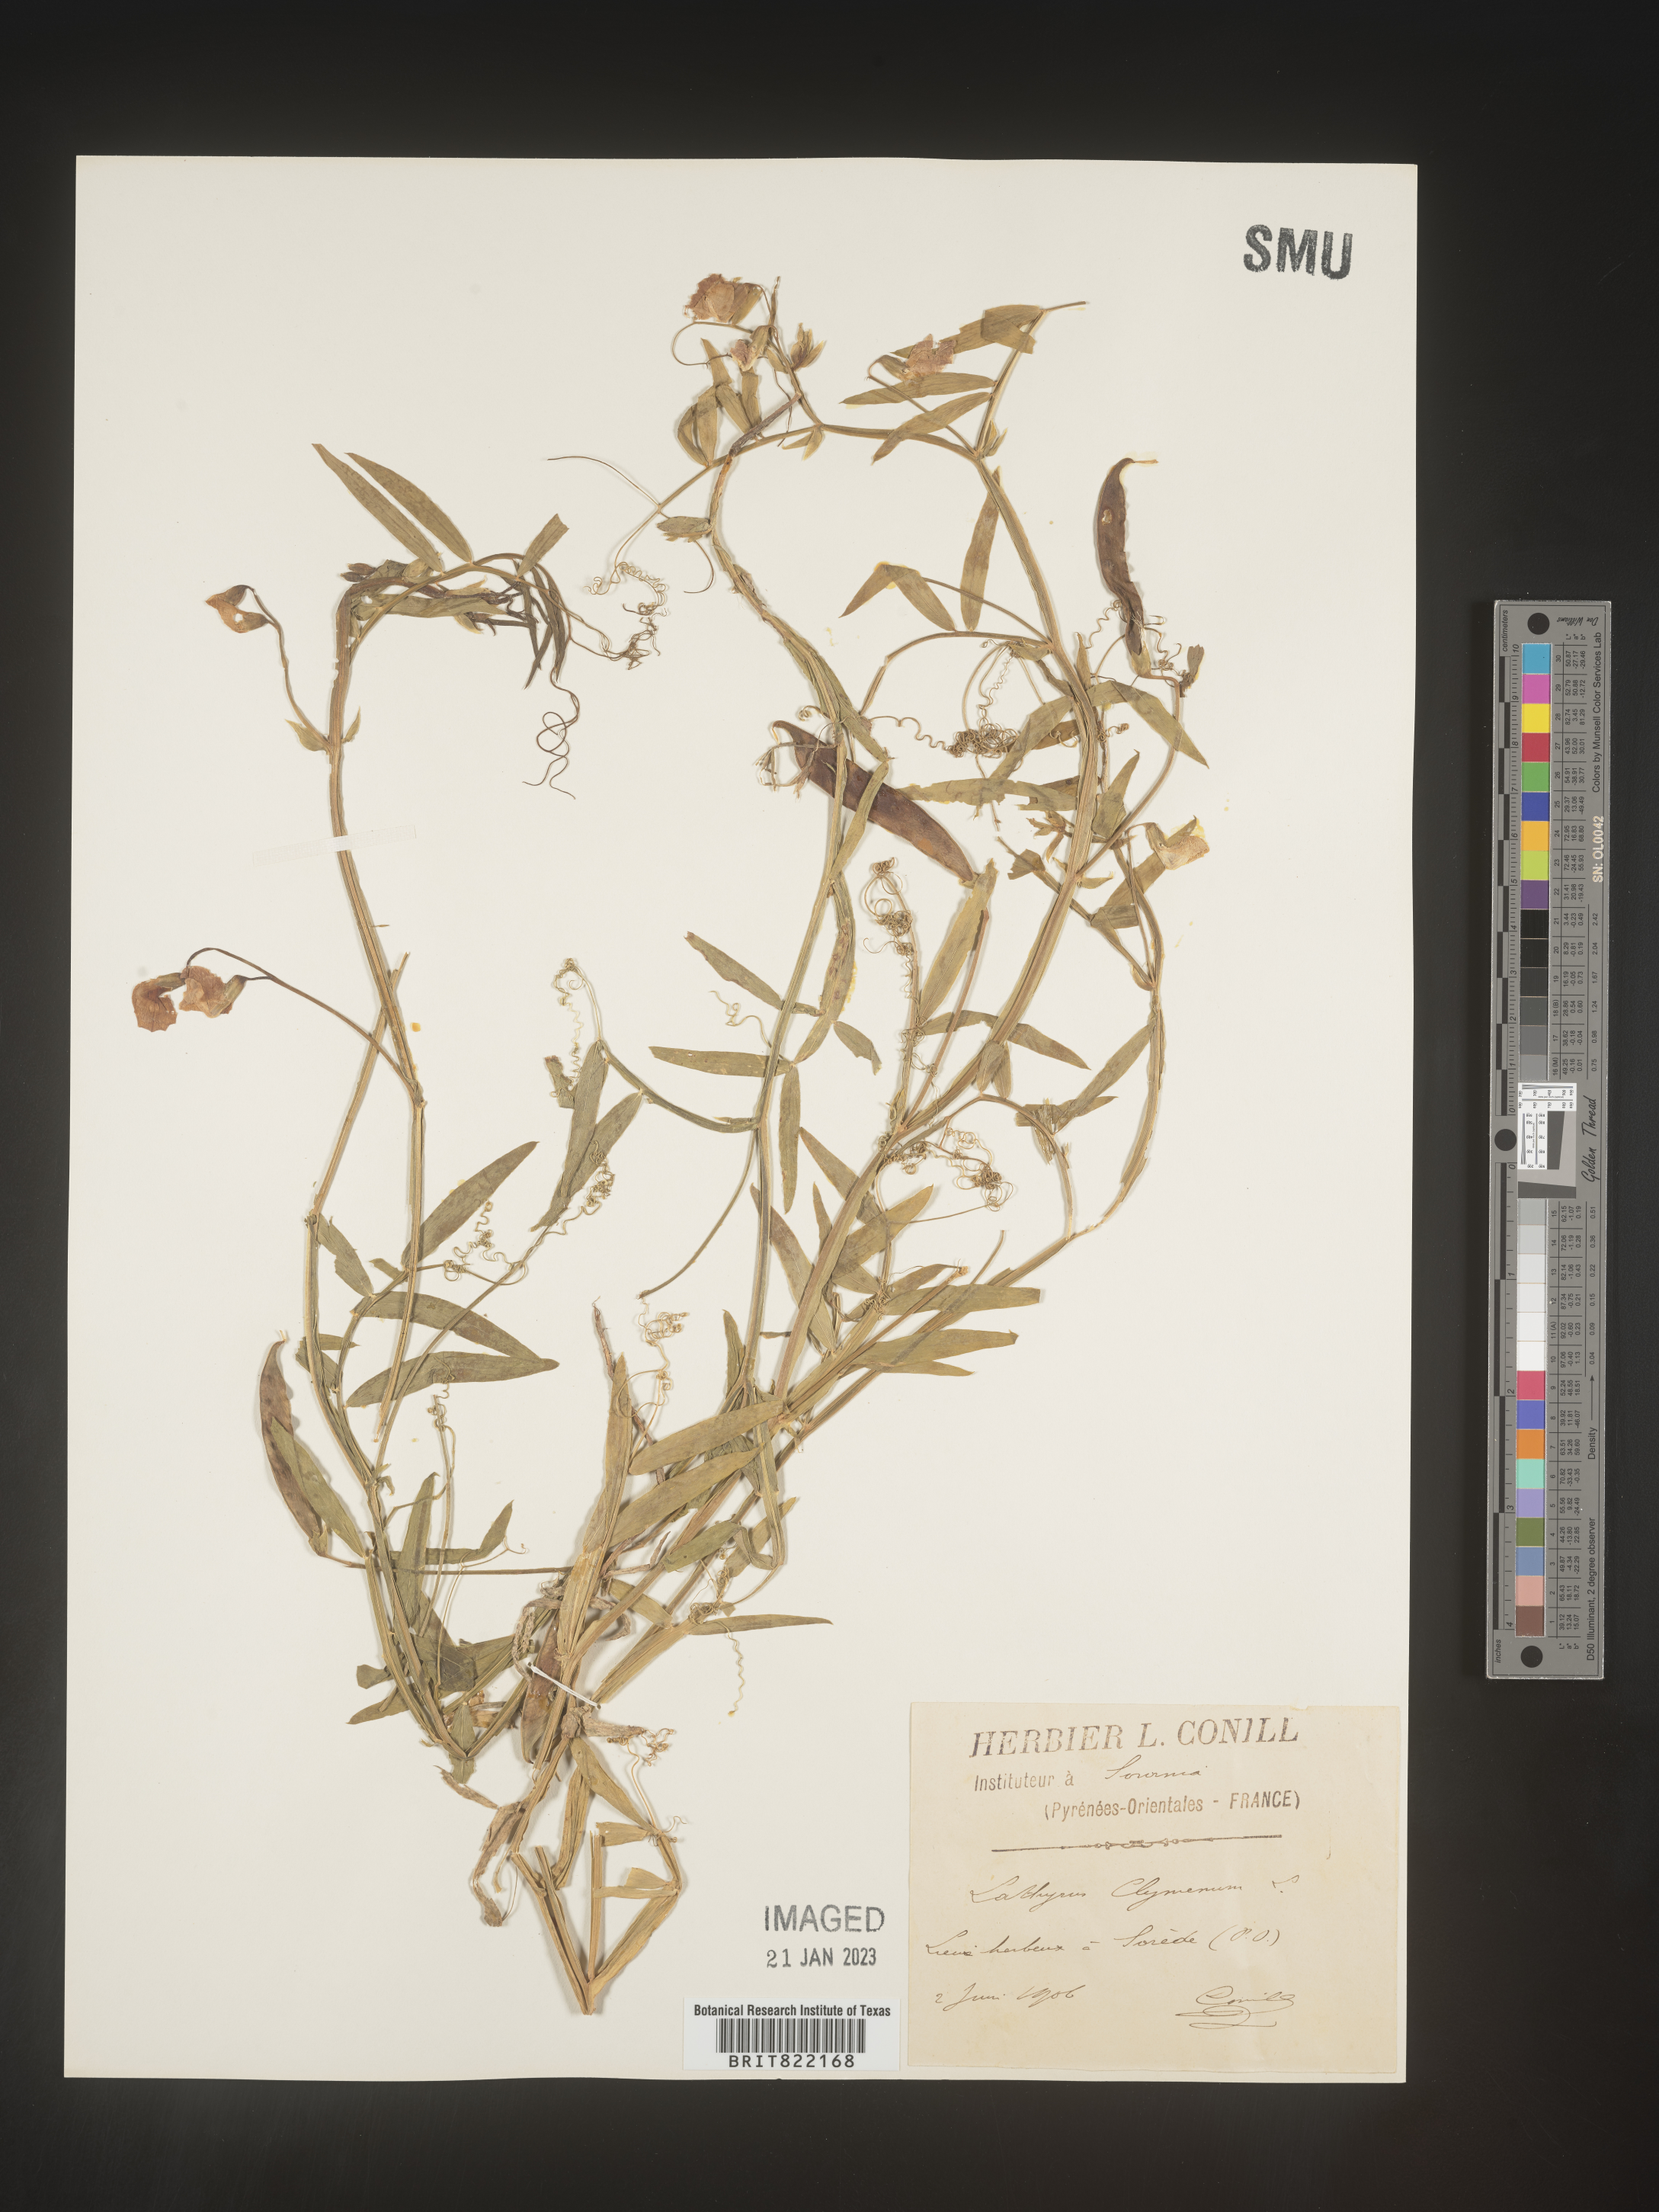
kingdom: Plantae
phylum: Tracheophyta
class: Magnoliopsida
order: Fabales
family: Fabaceae
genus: Lathyrus
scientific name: Lathyrus
